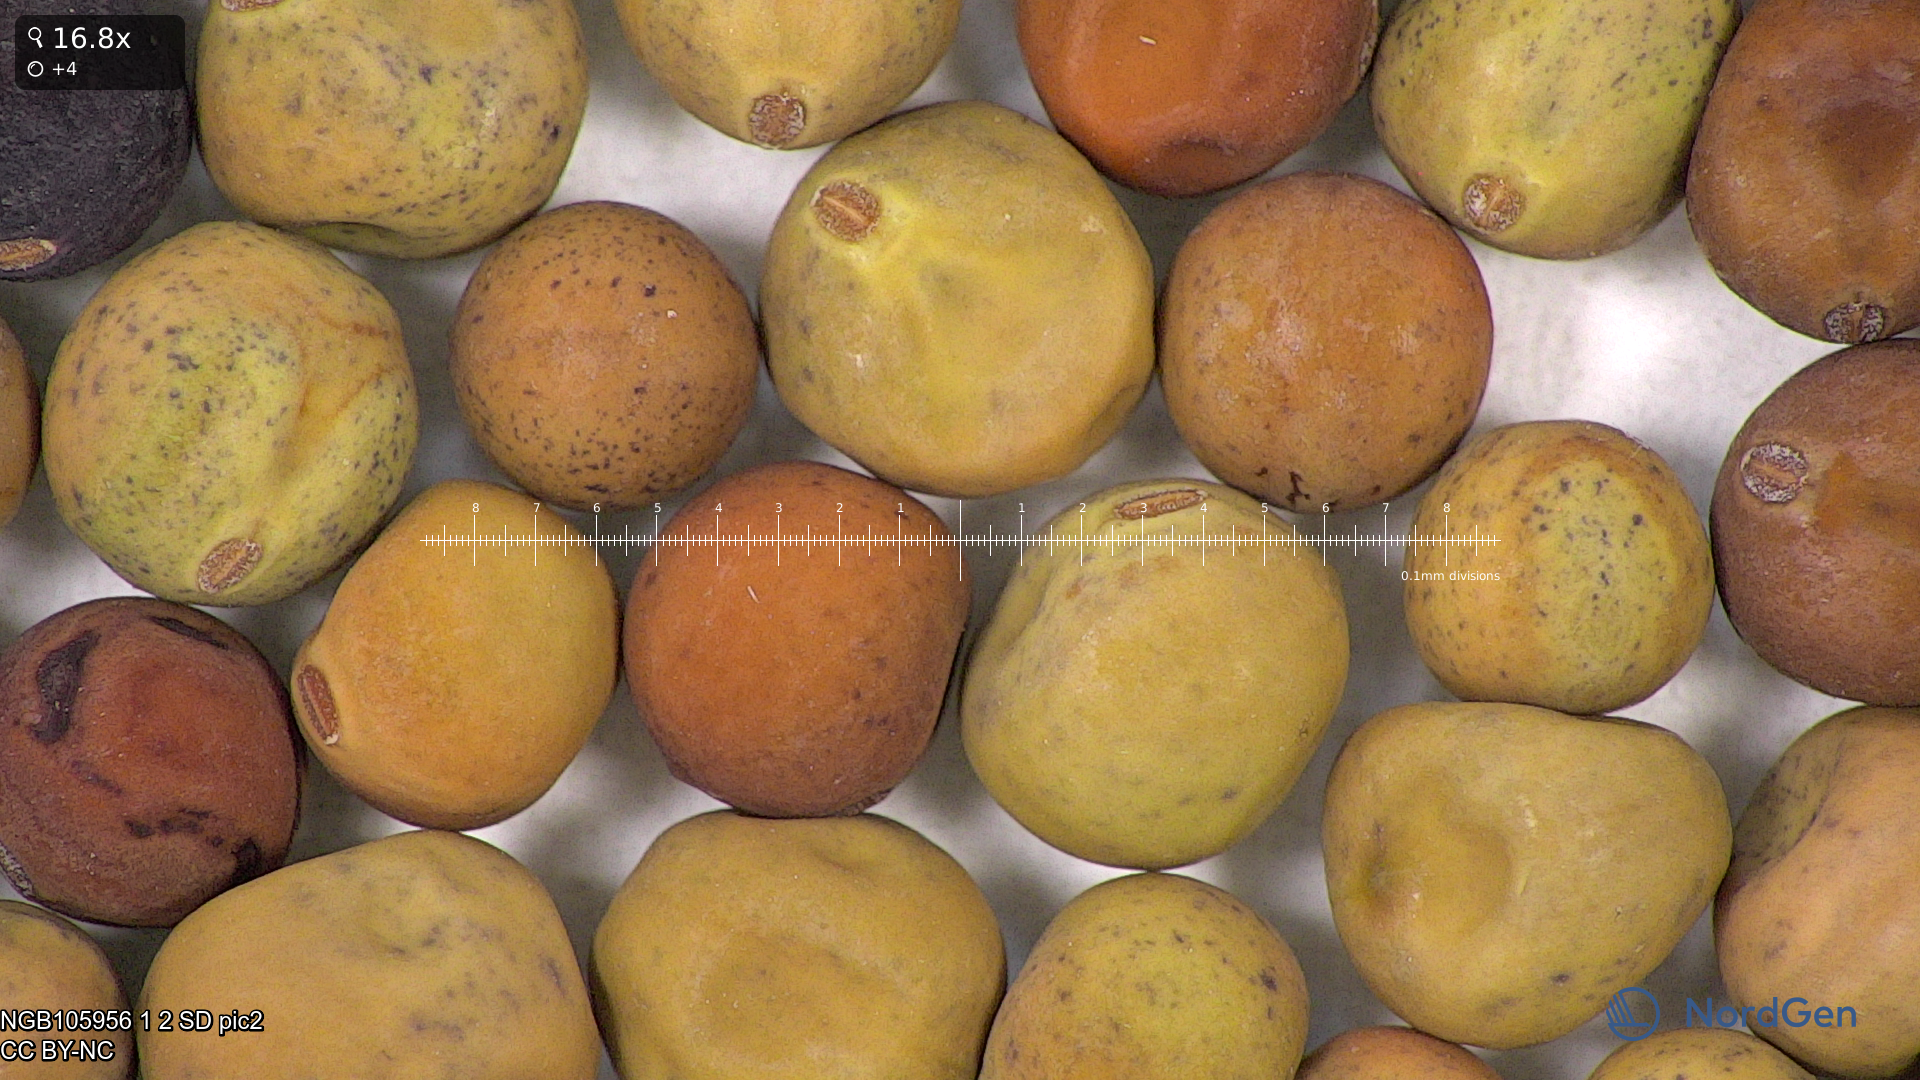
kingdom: Plantae
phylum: Tracheophyta
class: Magnoliopsida
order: Fabales
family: Fabaceae
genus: Lathyrus
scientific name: Lathyrus oleraceus
